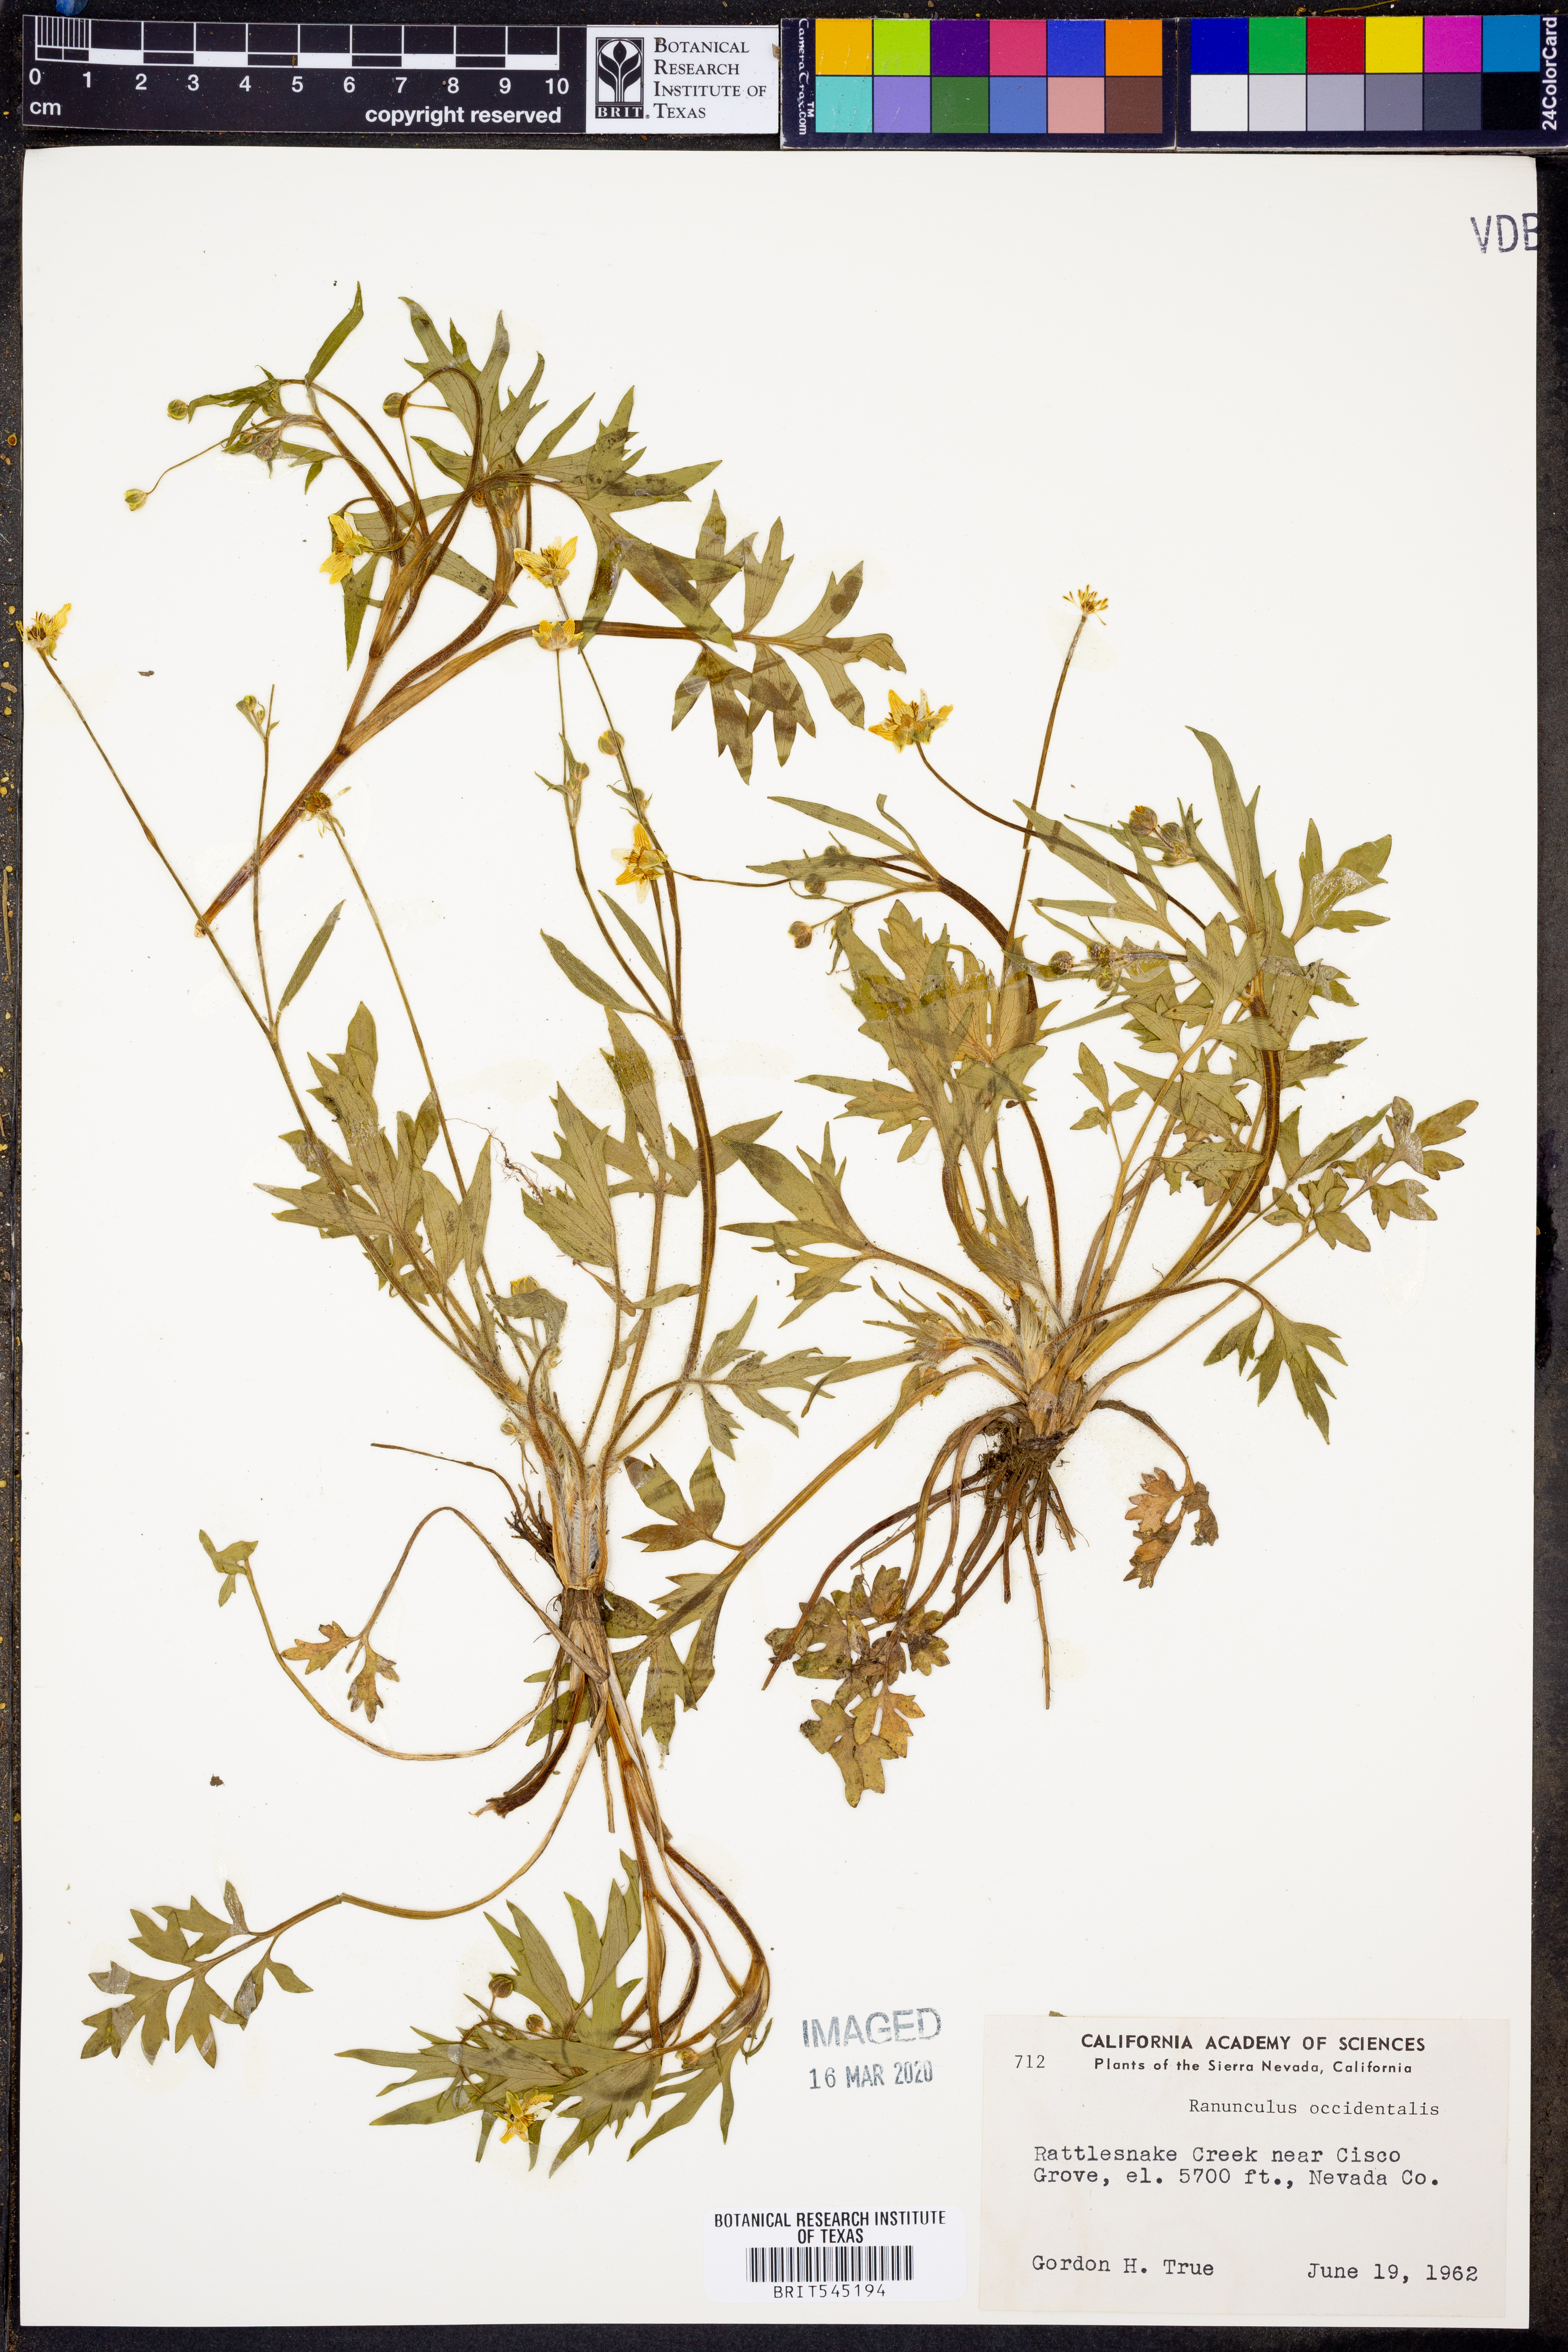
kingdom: Plantae
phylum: Tracheophyta
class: Magnoliopsida
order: Ranunculales
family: Ranunculaceae
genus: Ranunculus
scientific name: Ranunculus occidentalis
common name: Western buttercup
